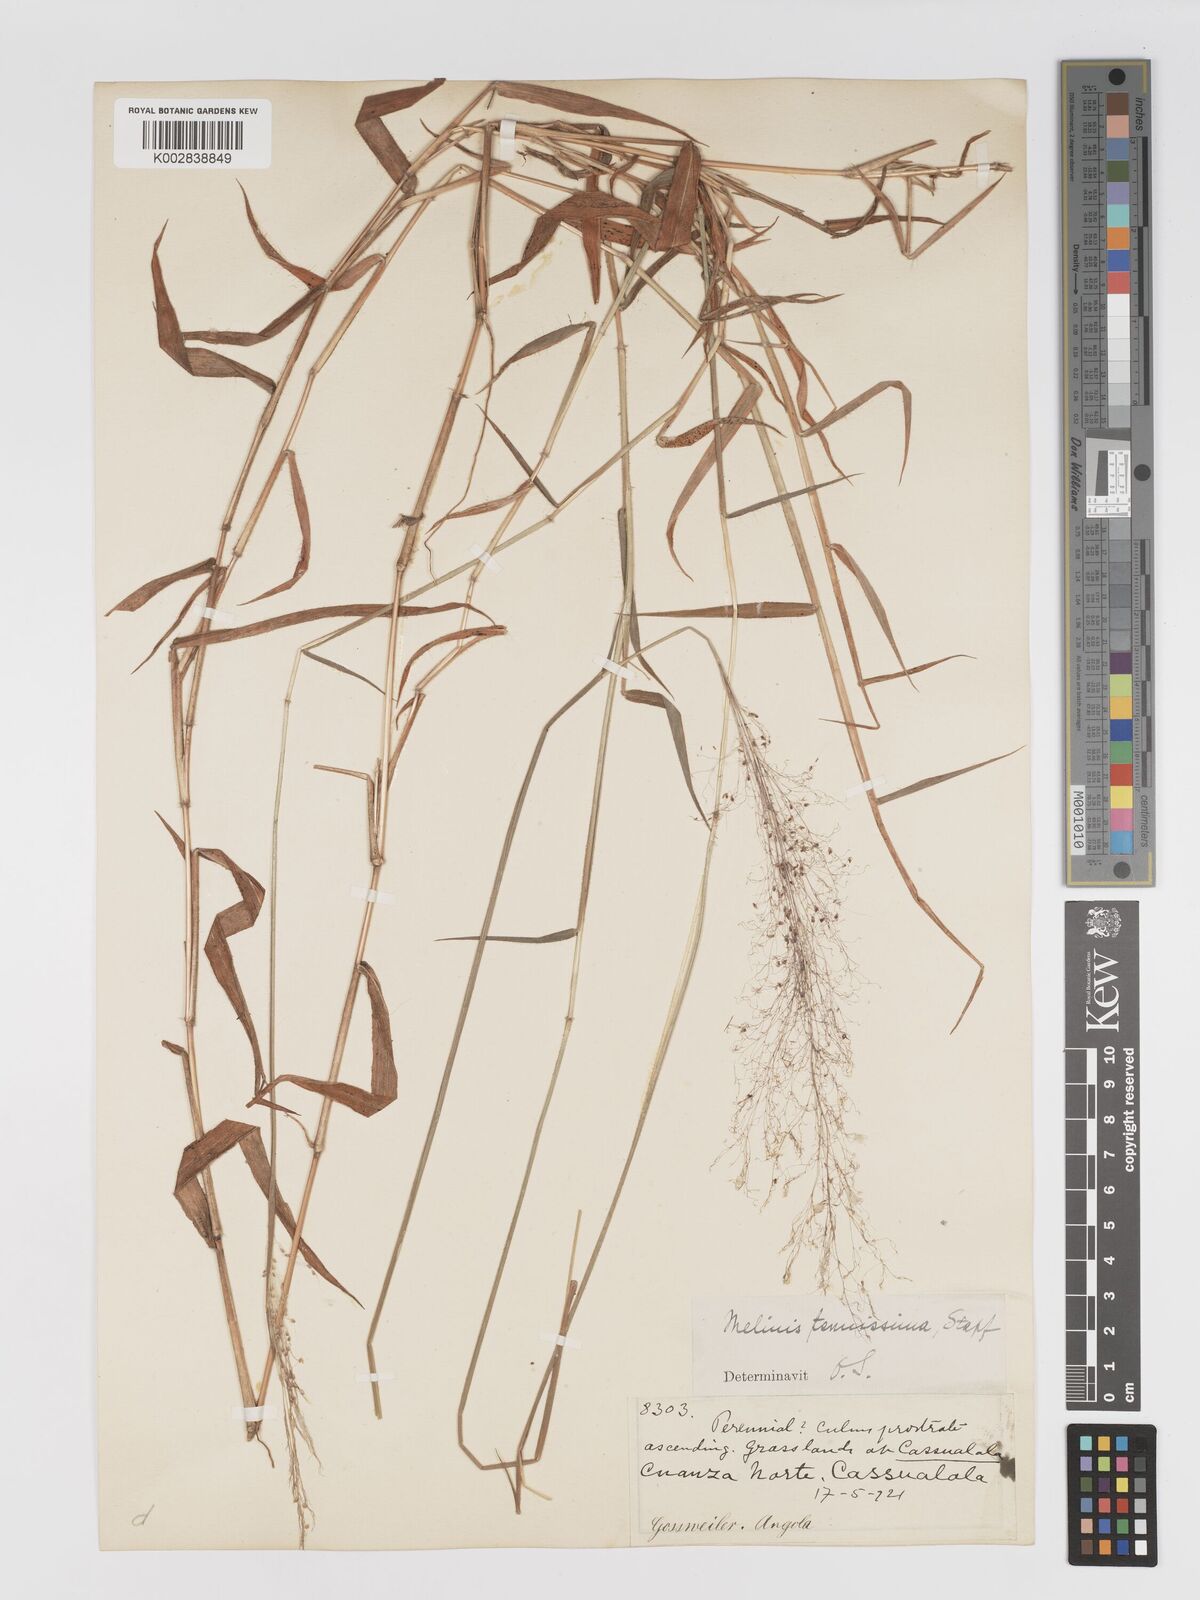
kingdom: Plantae
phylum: Tracheophyta
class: Liliopsida
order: Poales
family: Poaceae
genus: Melinis
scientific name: Melinis tenuissima
